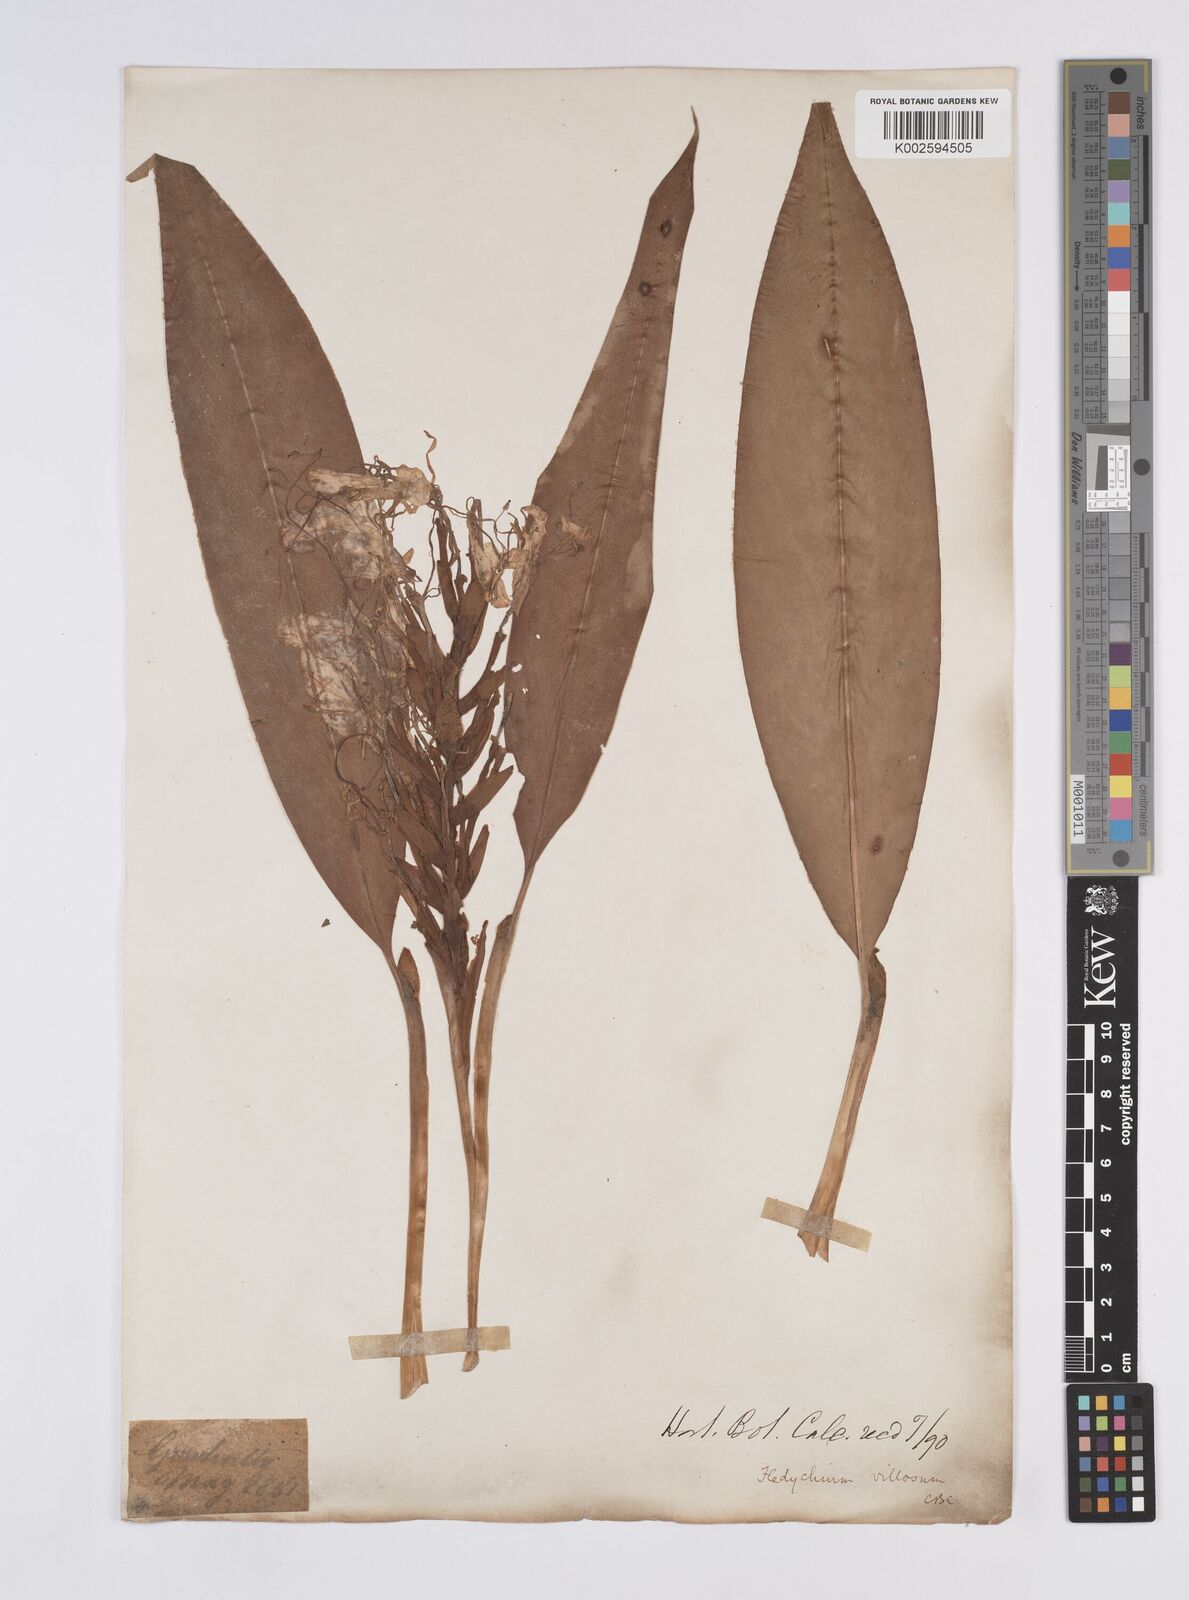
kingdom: Plantae
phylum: Tracheophyta
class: Liliopsida
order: Zingiberales
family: Zingiberaceae
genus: Hedychium
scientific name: Hedychium villosum
